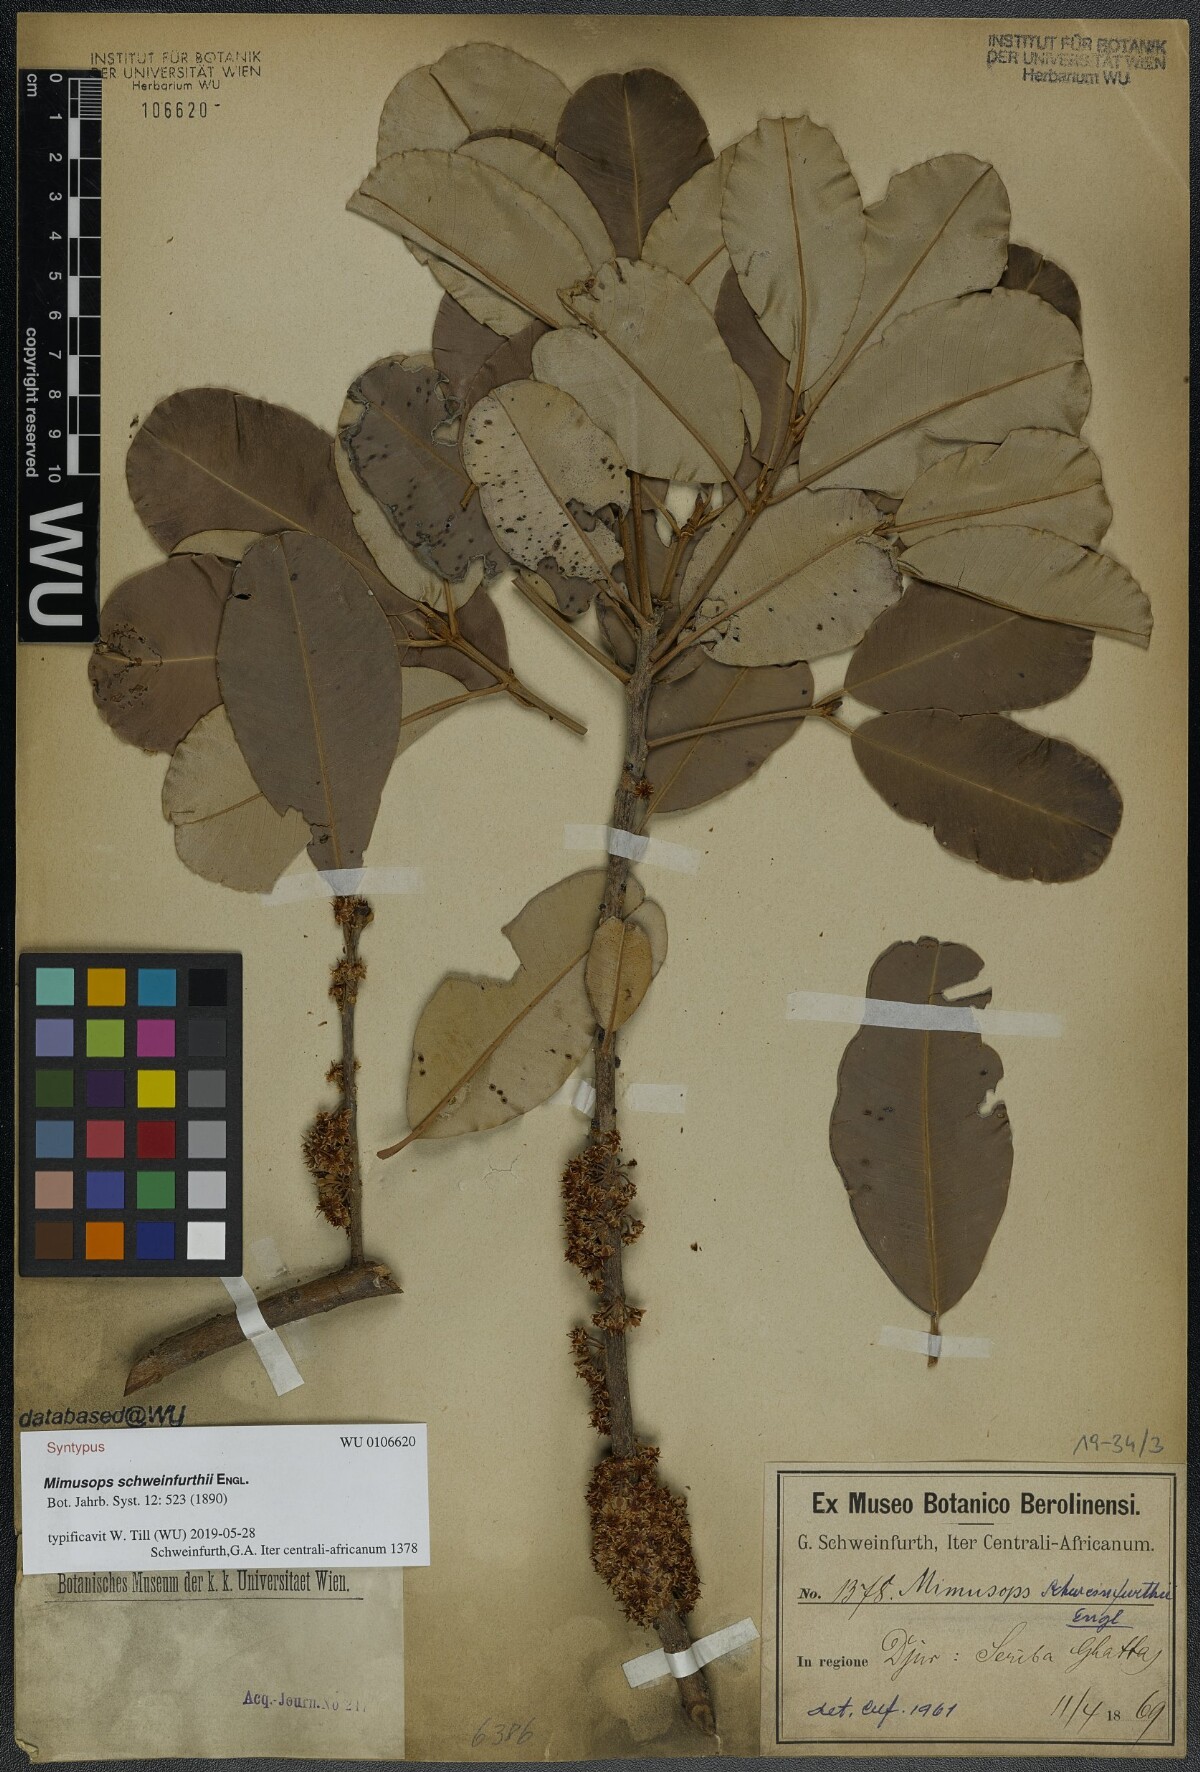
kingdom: Plantae
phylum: Tracheophyta
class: Magnoliopsida
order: Ericales
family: Sapotaceae
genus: Manilkara
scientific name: Manilkara obovata
